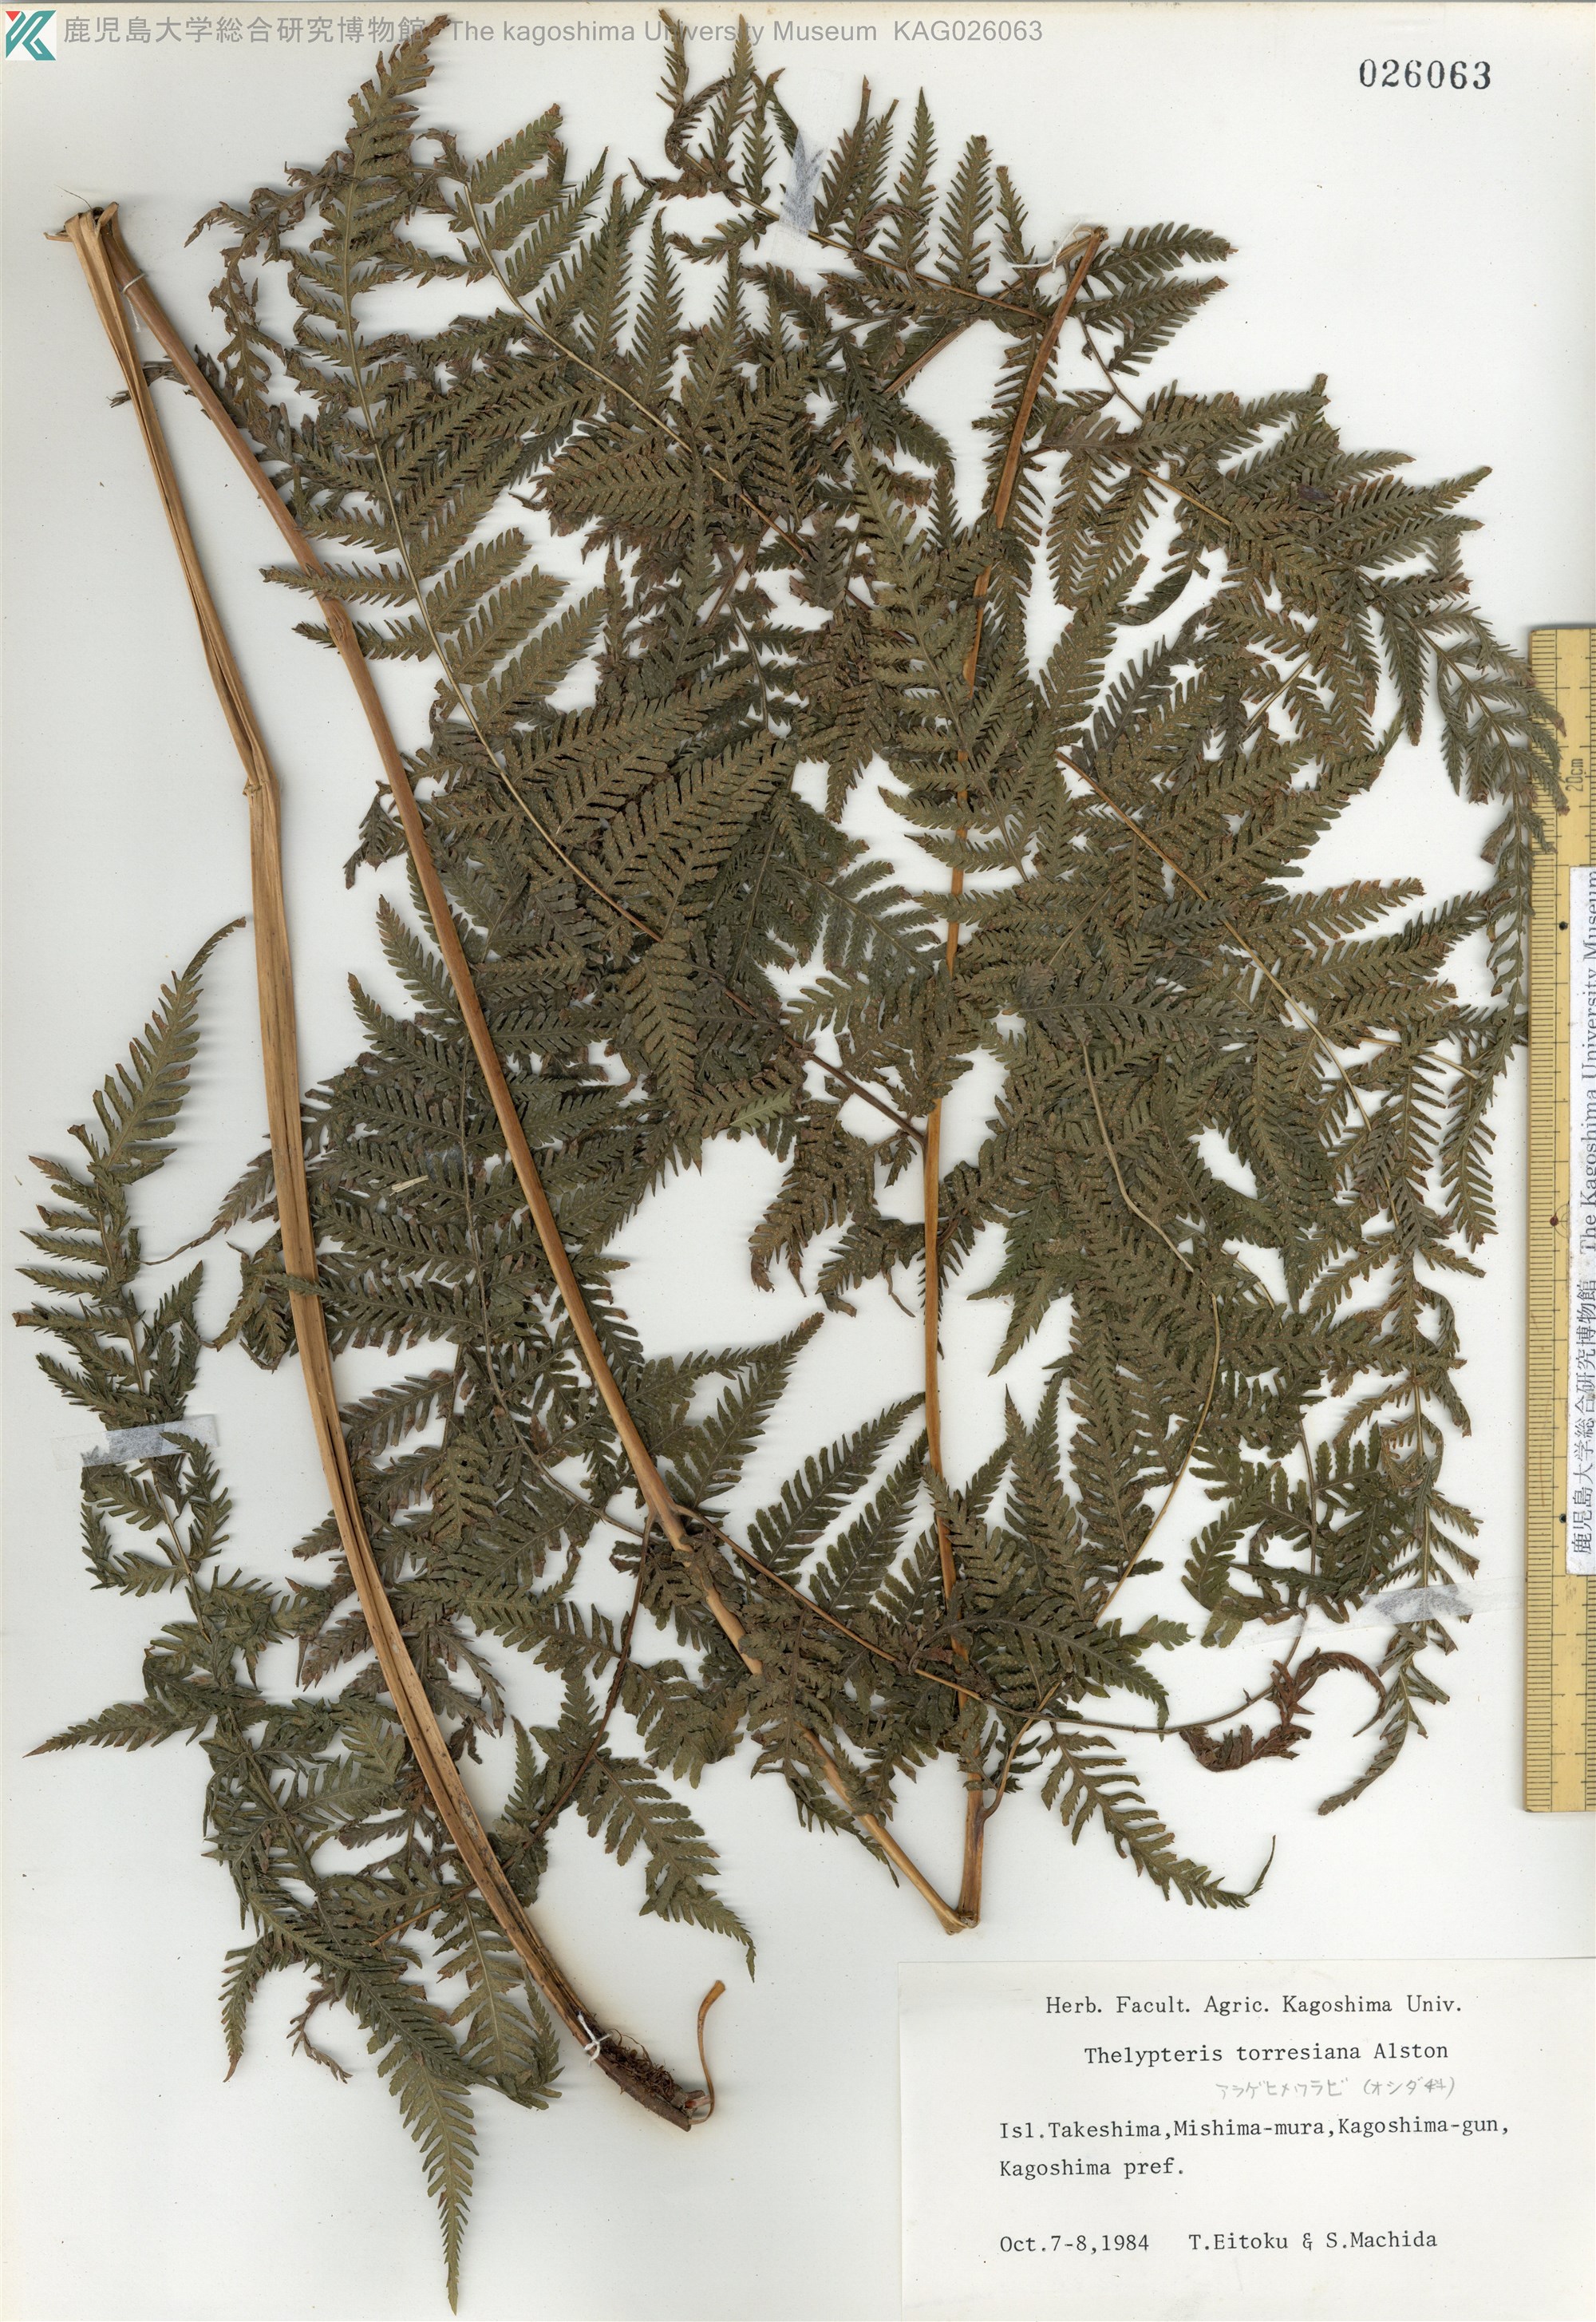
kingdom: Plantae
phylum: Tracheophyta
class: Polypodiopsida
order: Polypodiales
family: Thelypteridaceae
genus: Macrothelypteris
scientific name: Macrothelypteris oligophlebia
